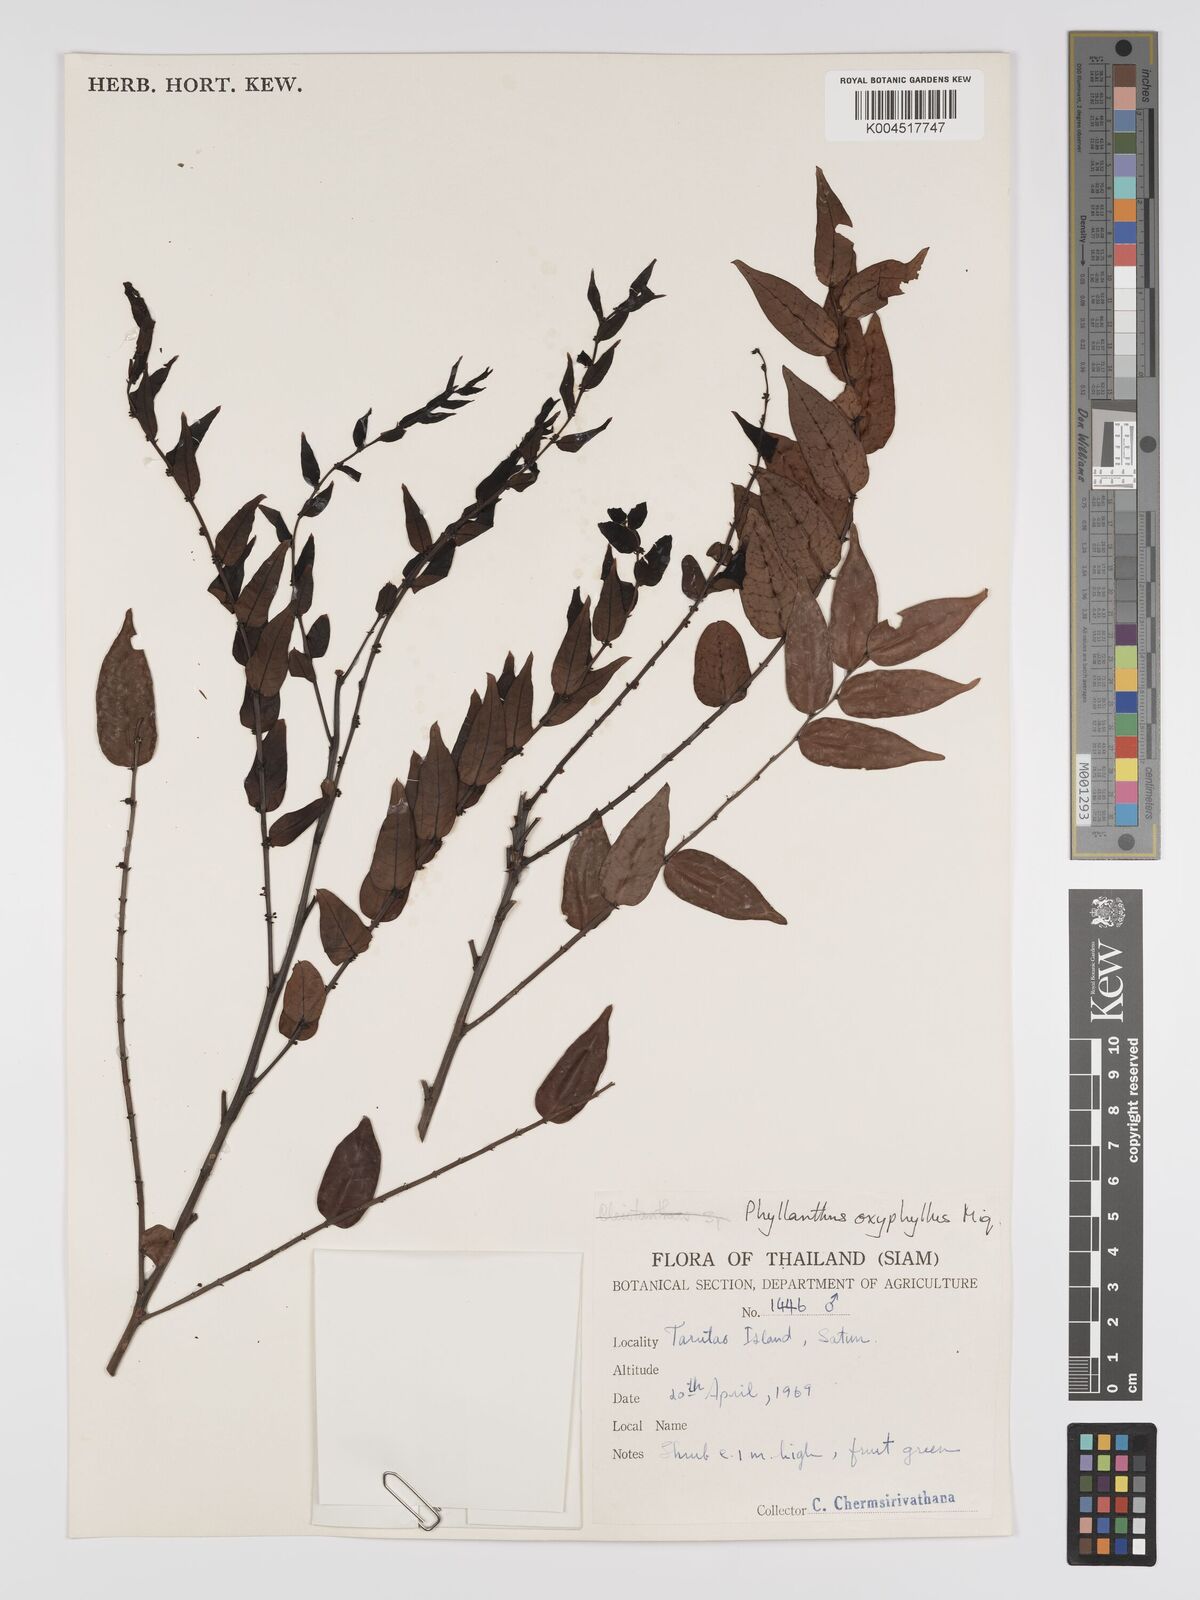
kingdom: Plantae
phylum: Tracheophyta
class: Magnoliopsida
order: Malpighiales
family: Phyllanthaceae
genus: Phyllanthus
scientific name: Phyllanthus
